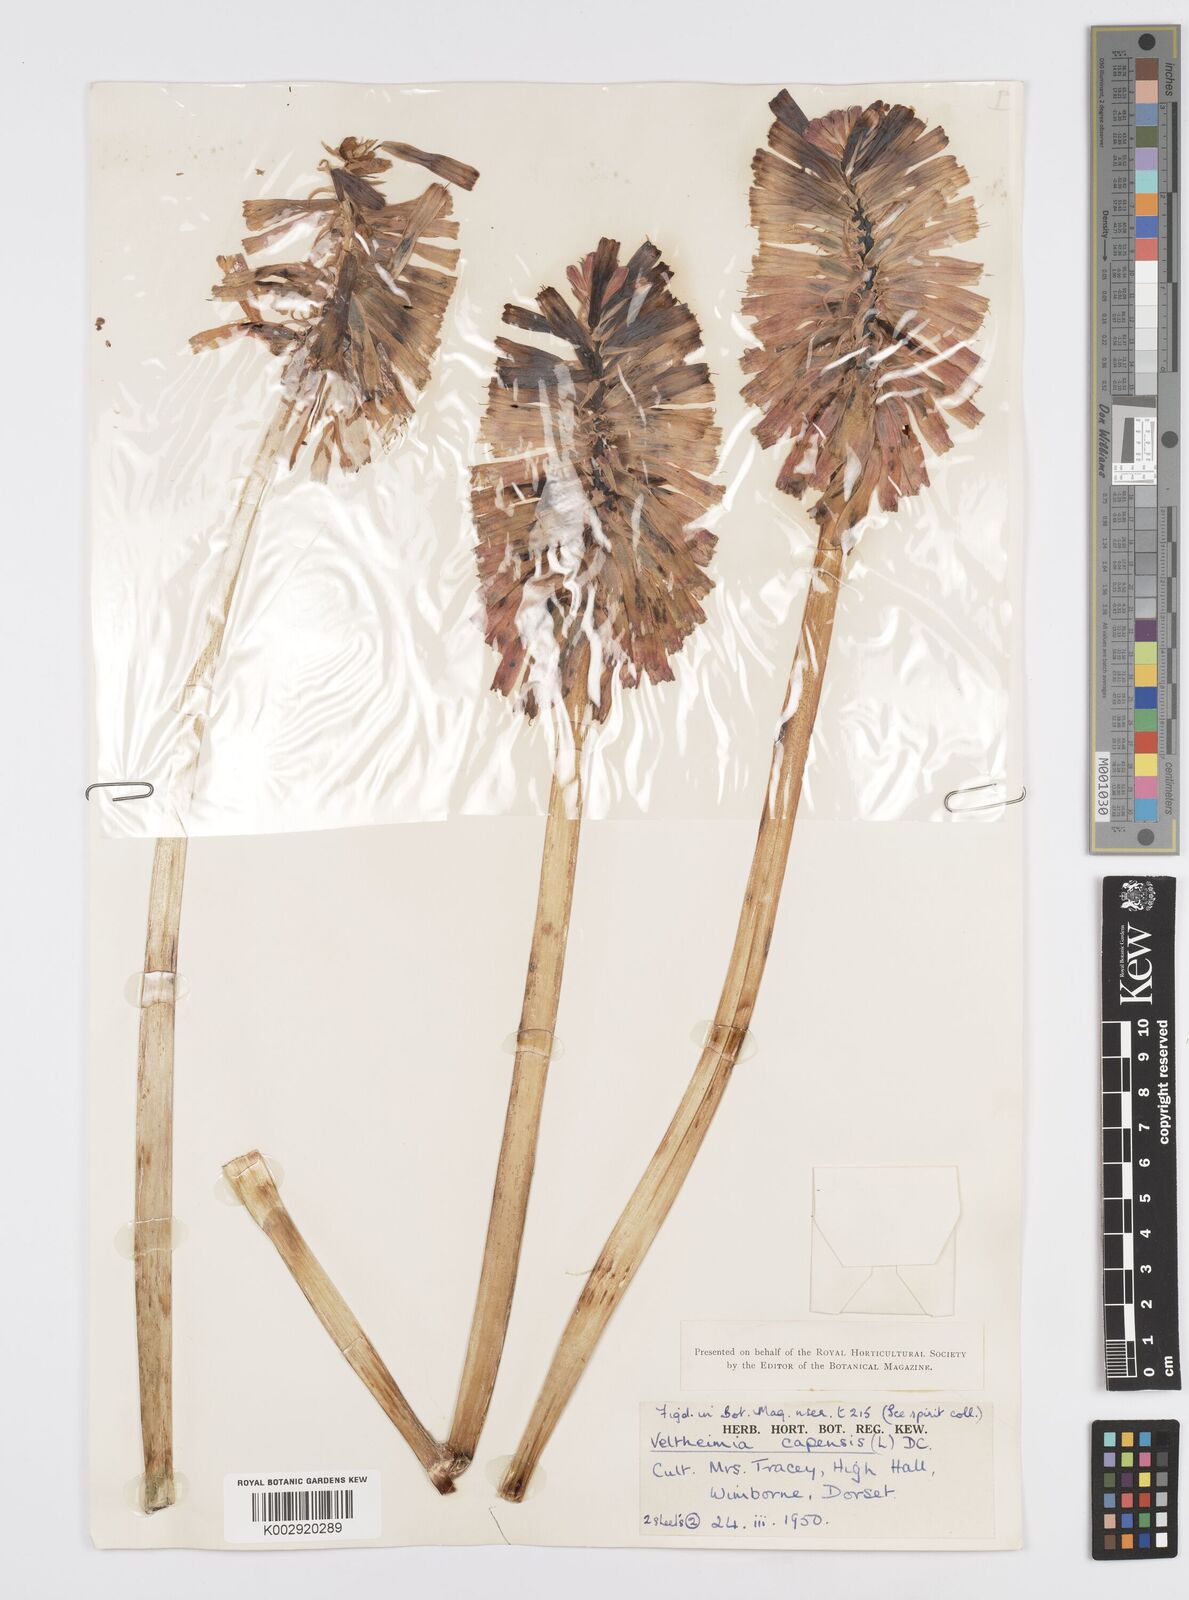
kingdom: Plantae
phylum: Tracheophyta
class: Liliopsida
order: Asparagales
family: Asparagaceae
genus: Veltheimia
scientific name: Veltheimia bracteata
